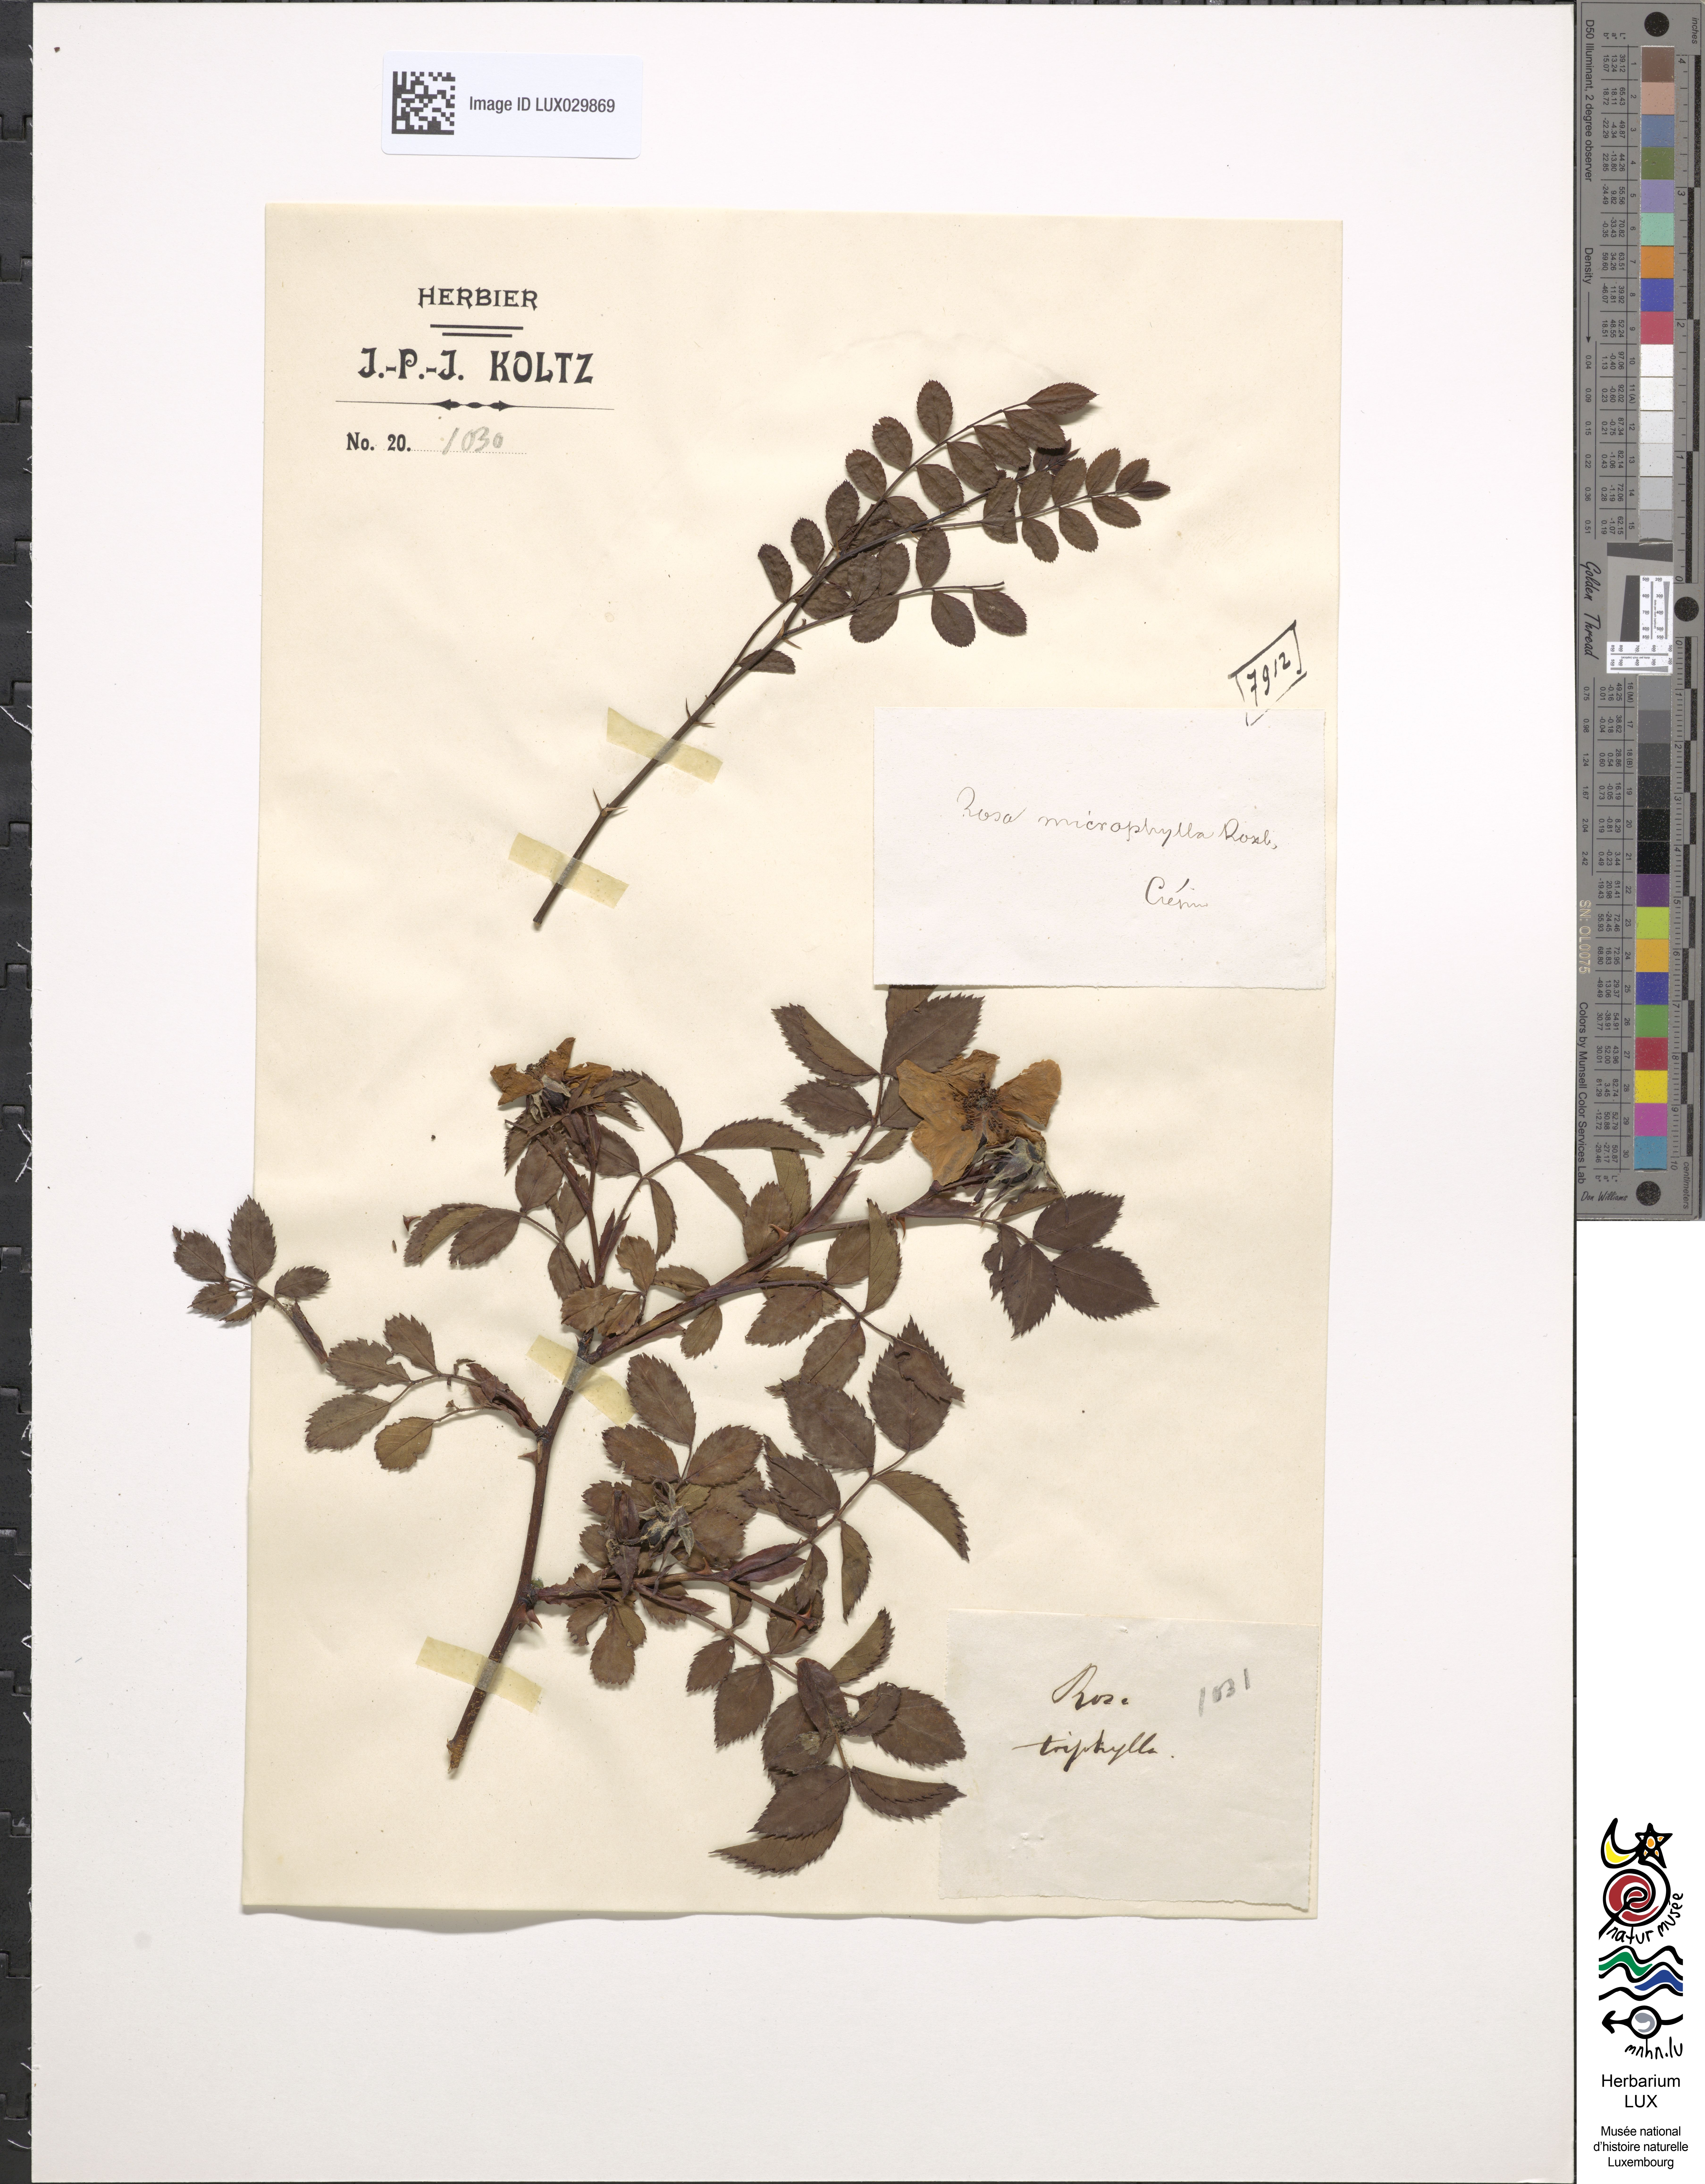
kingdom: Plantae
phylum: Tracheophyta
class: Magnoliopsida
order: Rosales
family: Rosaceae
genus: Rosa
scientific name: Rosa
